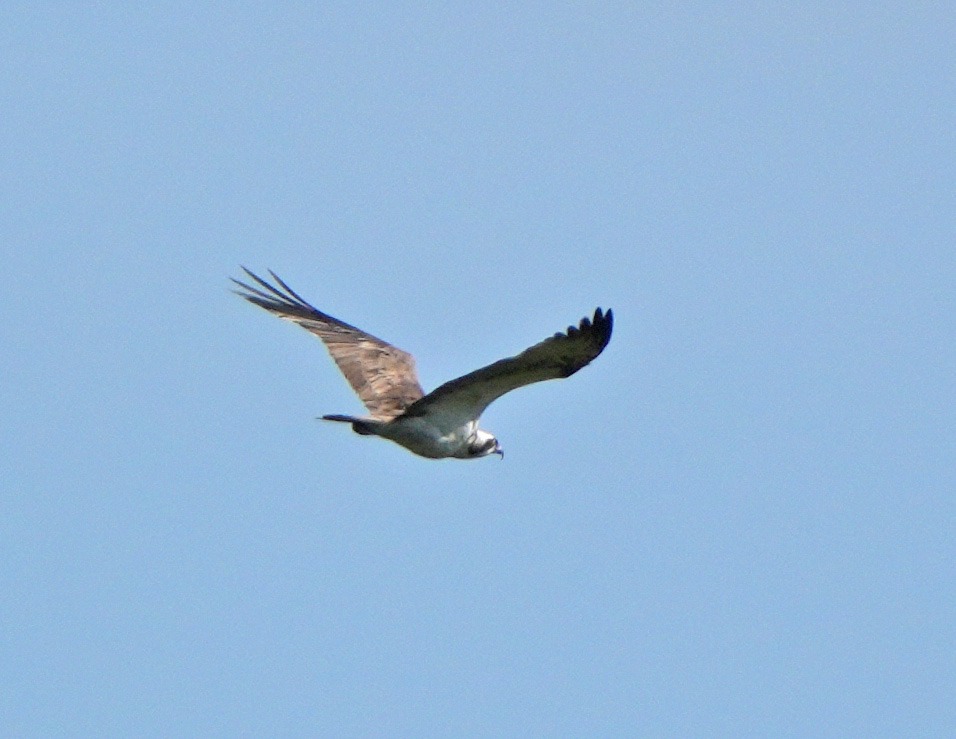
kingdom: Animalia
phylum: Chordata
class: Aves
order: Accipitriformes
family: Pandionidae
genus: Pandion
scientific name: Pandion haliaetus
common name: Fiskeørn
